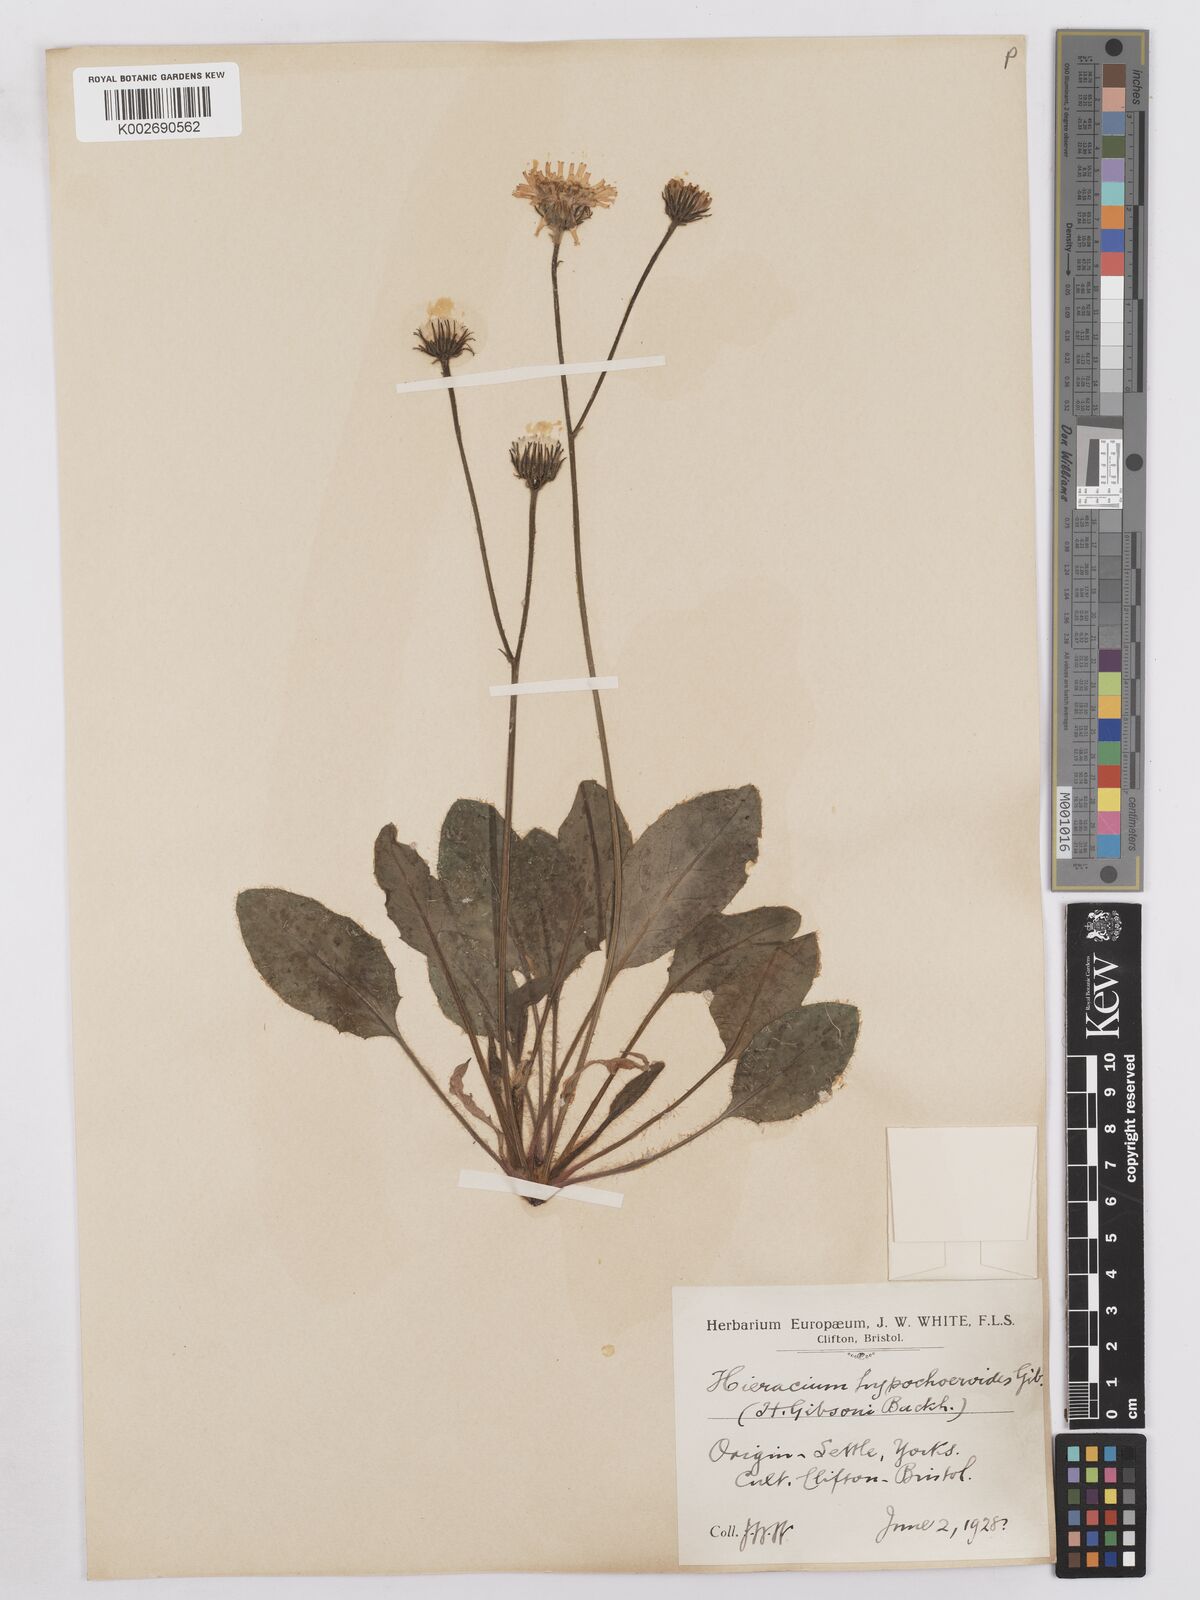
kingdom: Plantae
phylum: Tracheophyta
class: Magnoliopsida
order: Asterales
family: Asteraceae
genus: Hieracium
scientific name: Hieracium hypochoeroides
